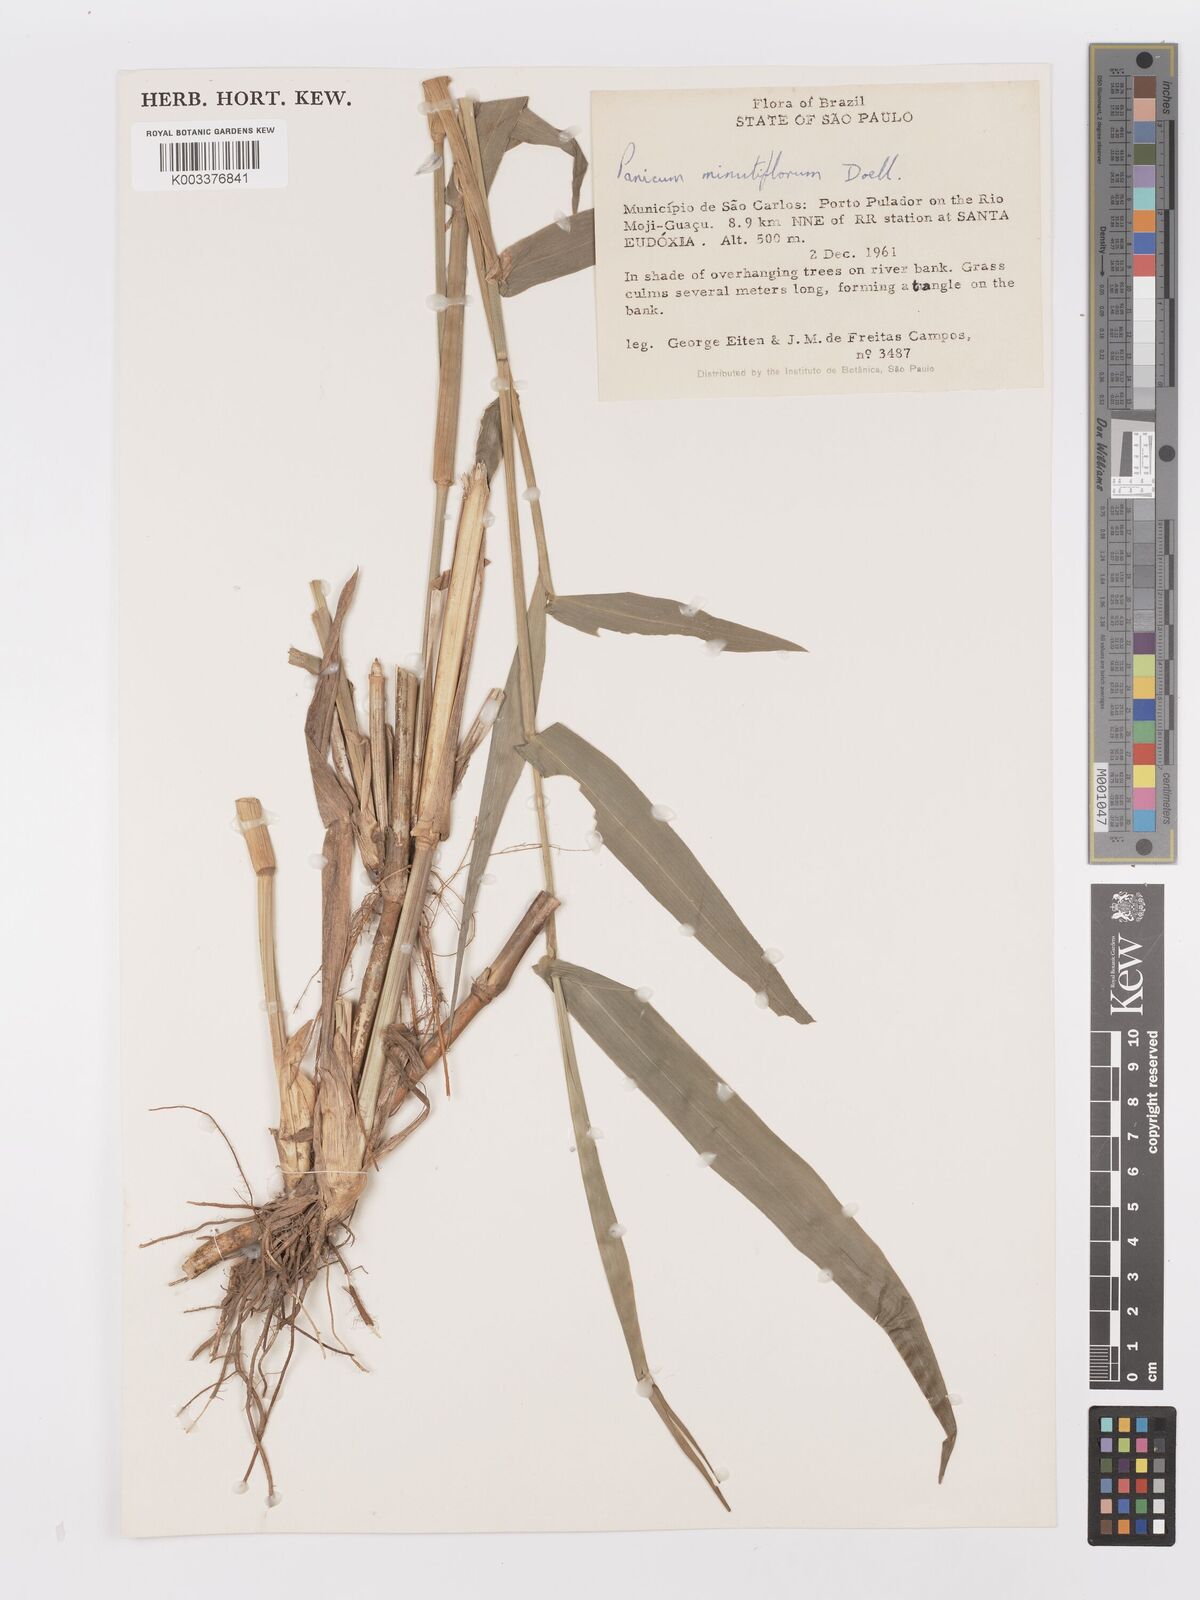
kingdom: Plantae
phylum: Tracheophyta
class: Liliopsida
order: Poales
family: Poaceae
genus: Rugoloa
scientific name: Rugoloa hylaeica
